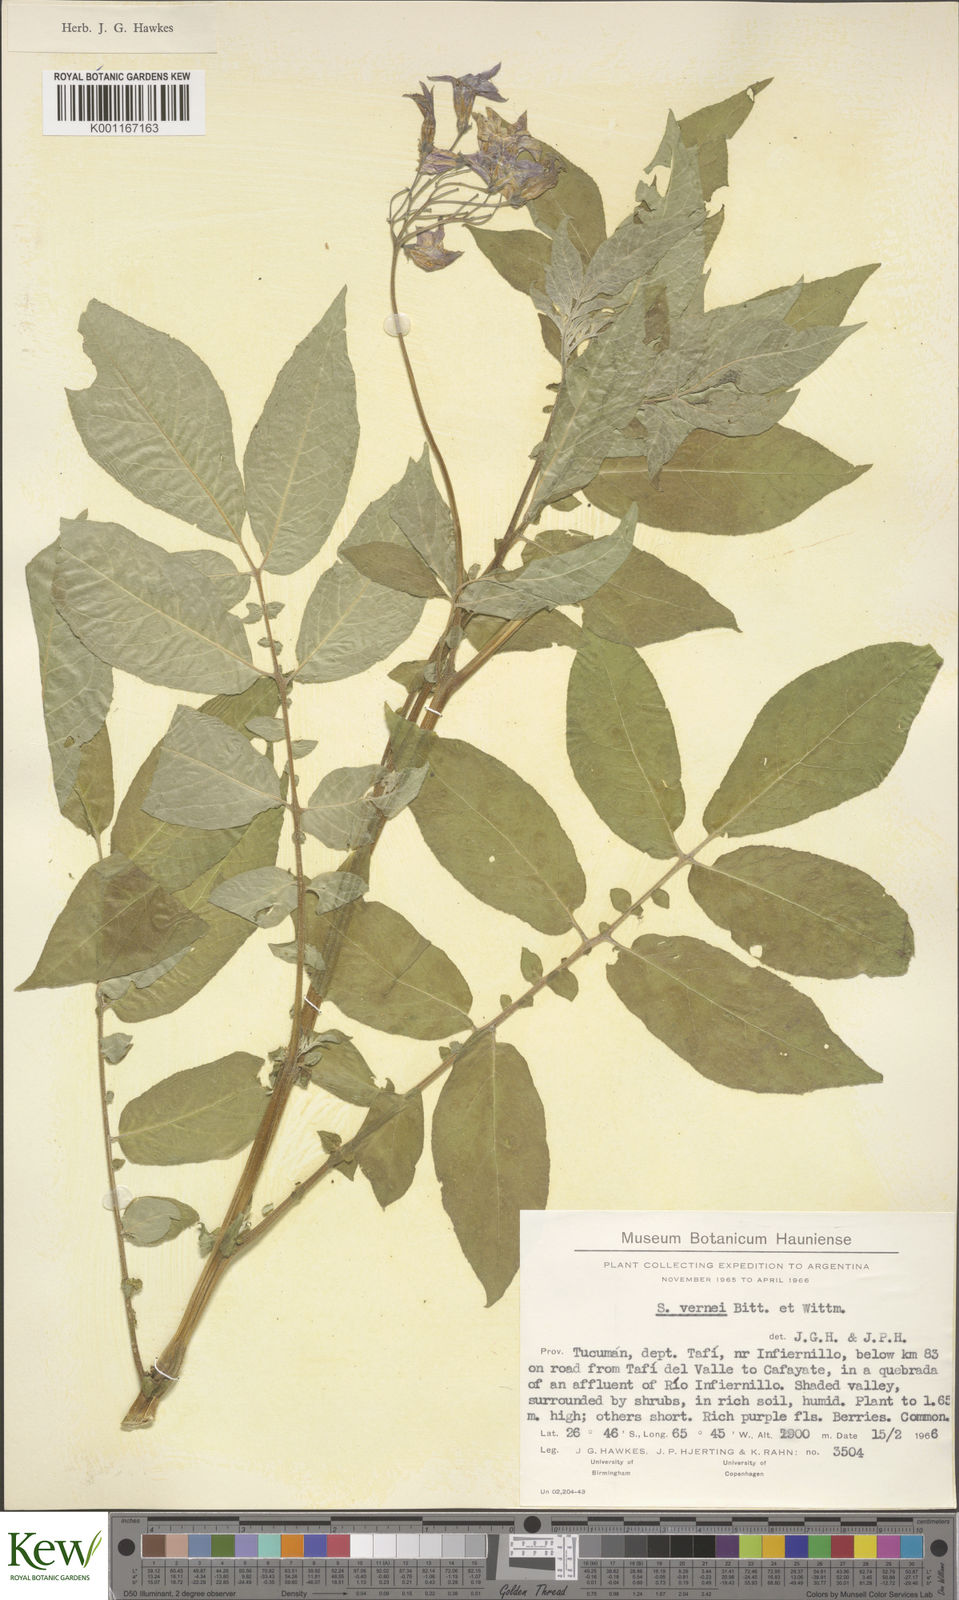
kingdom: Plantae
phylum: Tracheophyta
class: Magnoliopsida
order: Solanales
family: Solanaceae
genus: Solanum
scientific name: Solanum vernei
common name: Purple potato
